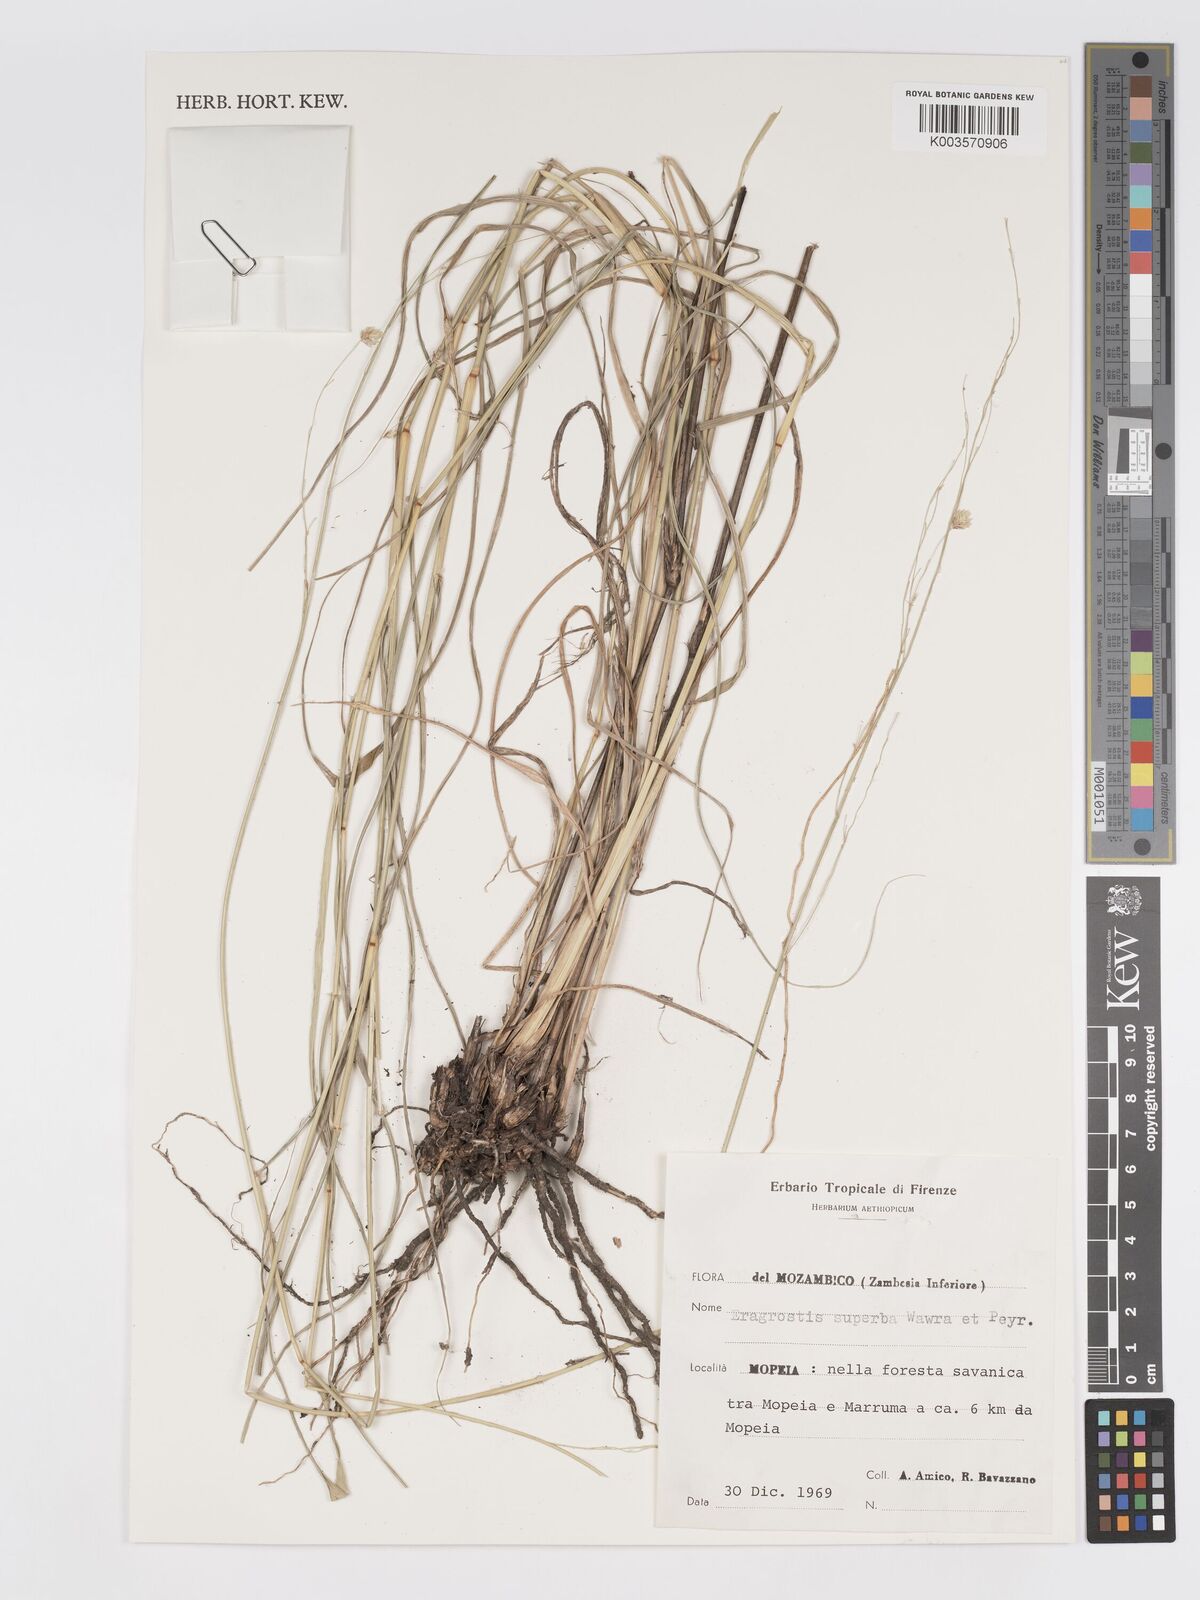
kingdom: Plantae
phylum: Tracheophyta
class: Liliopsida
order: Poales
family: Poaceae
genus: Eragrostis
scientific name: Eragrostis superba
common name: Wilman lovegrass
